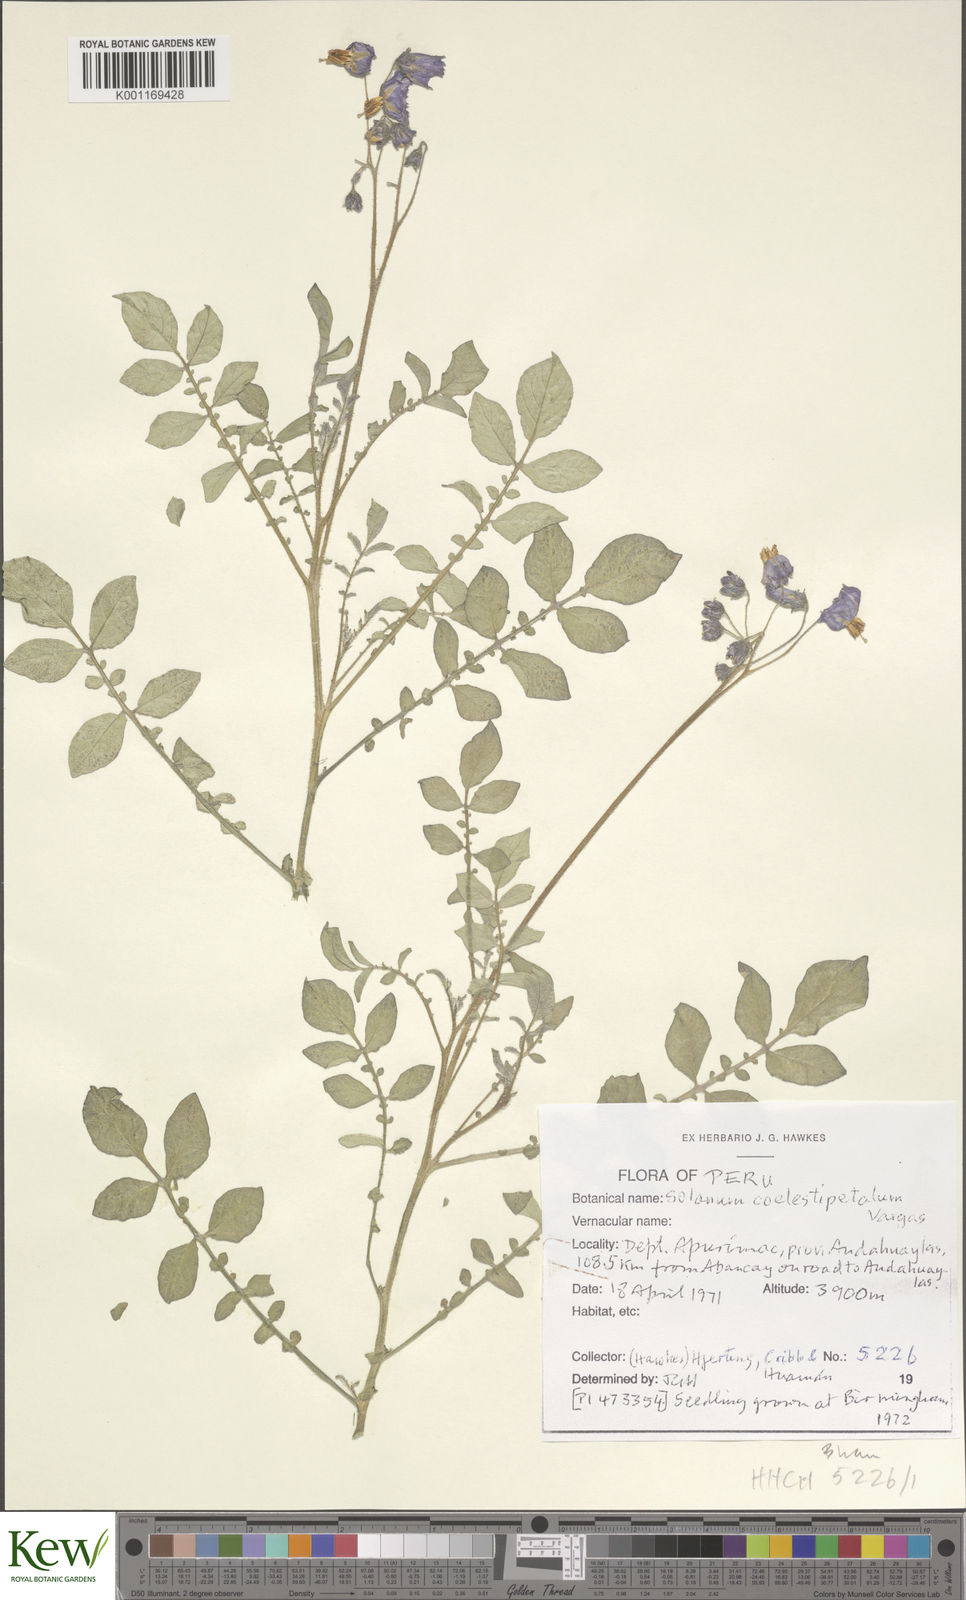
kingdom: Plantae
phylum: Tracheophyta
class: Magnoliopsida
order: Solanales
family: Solanaceae
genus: Solanum
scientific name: Solanum brevicaule
